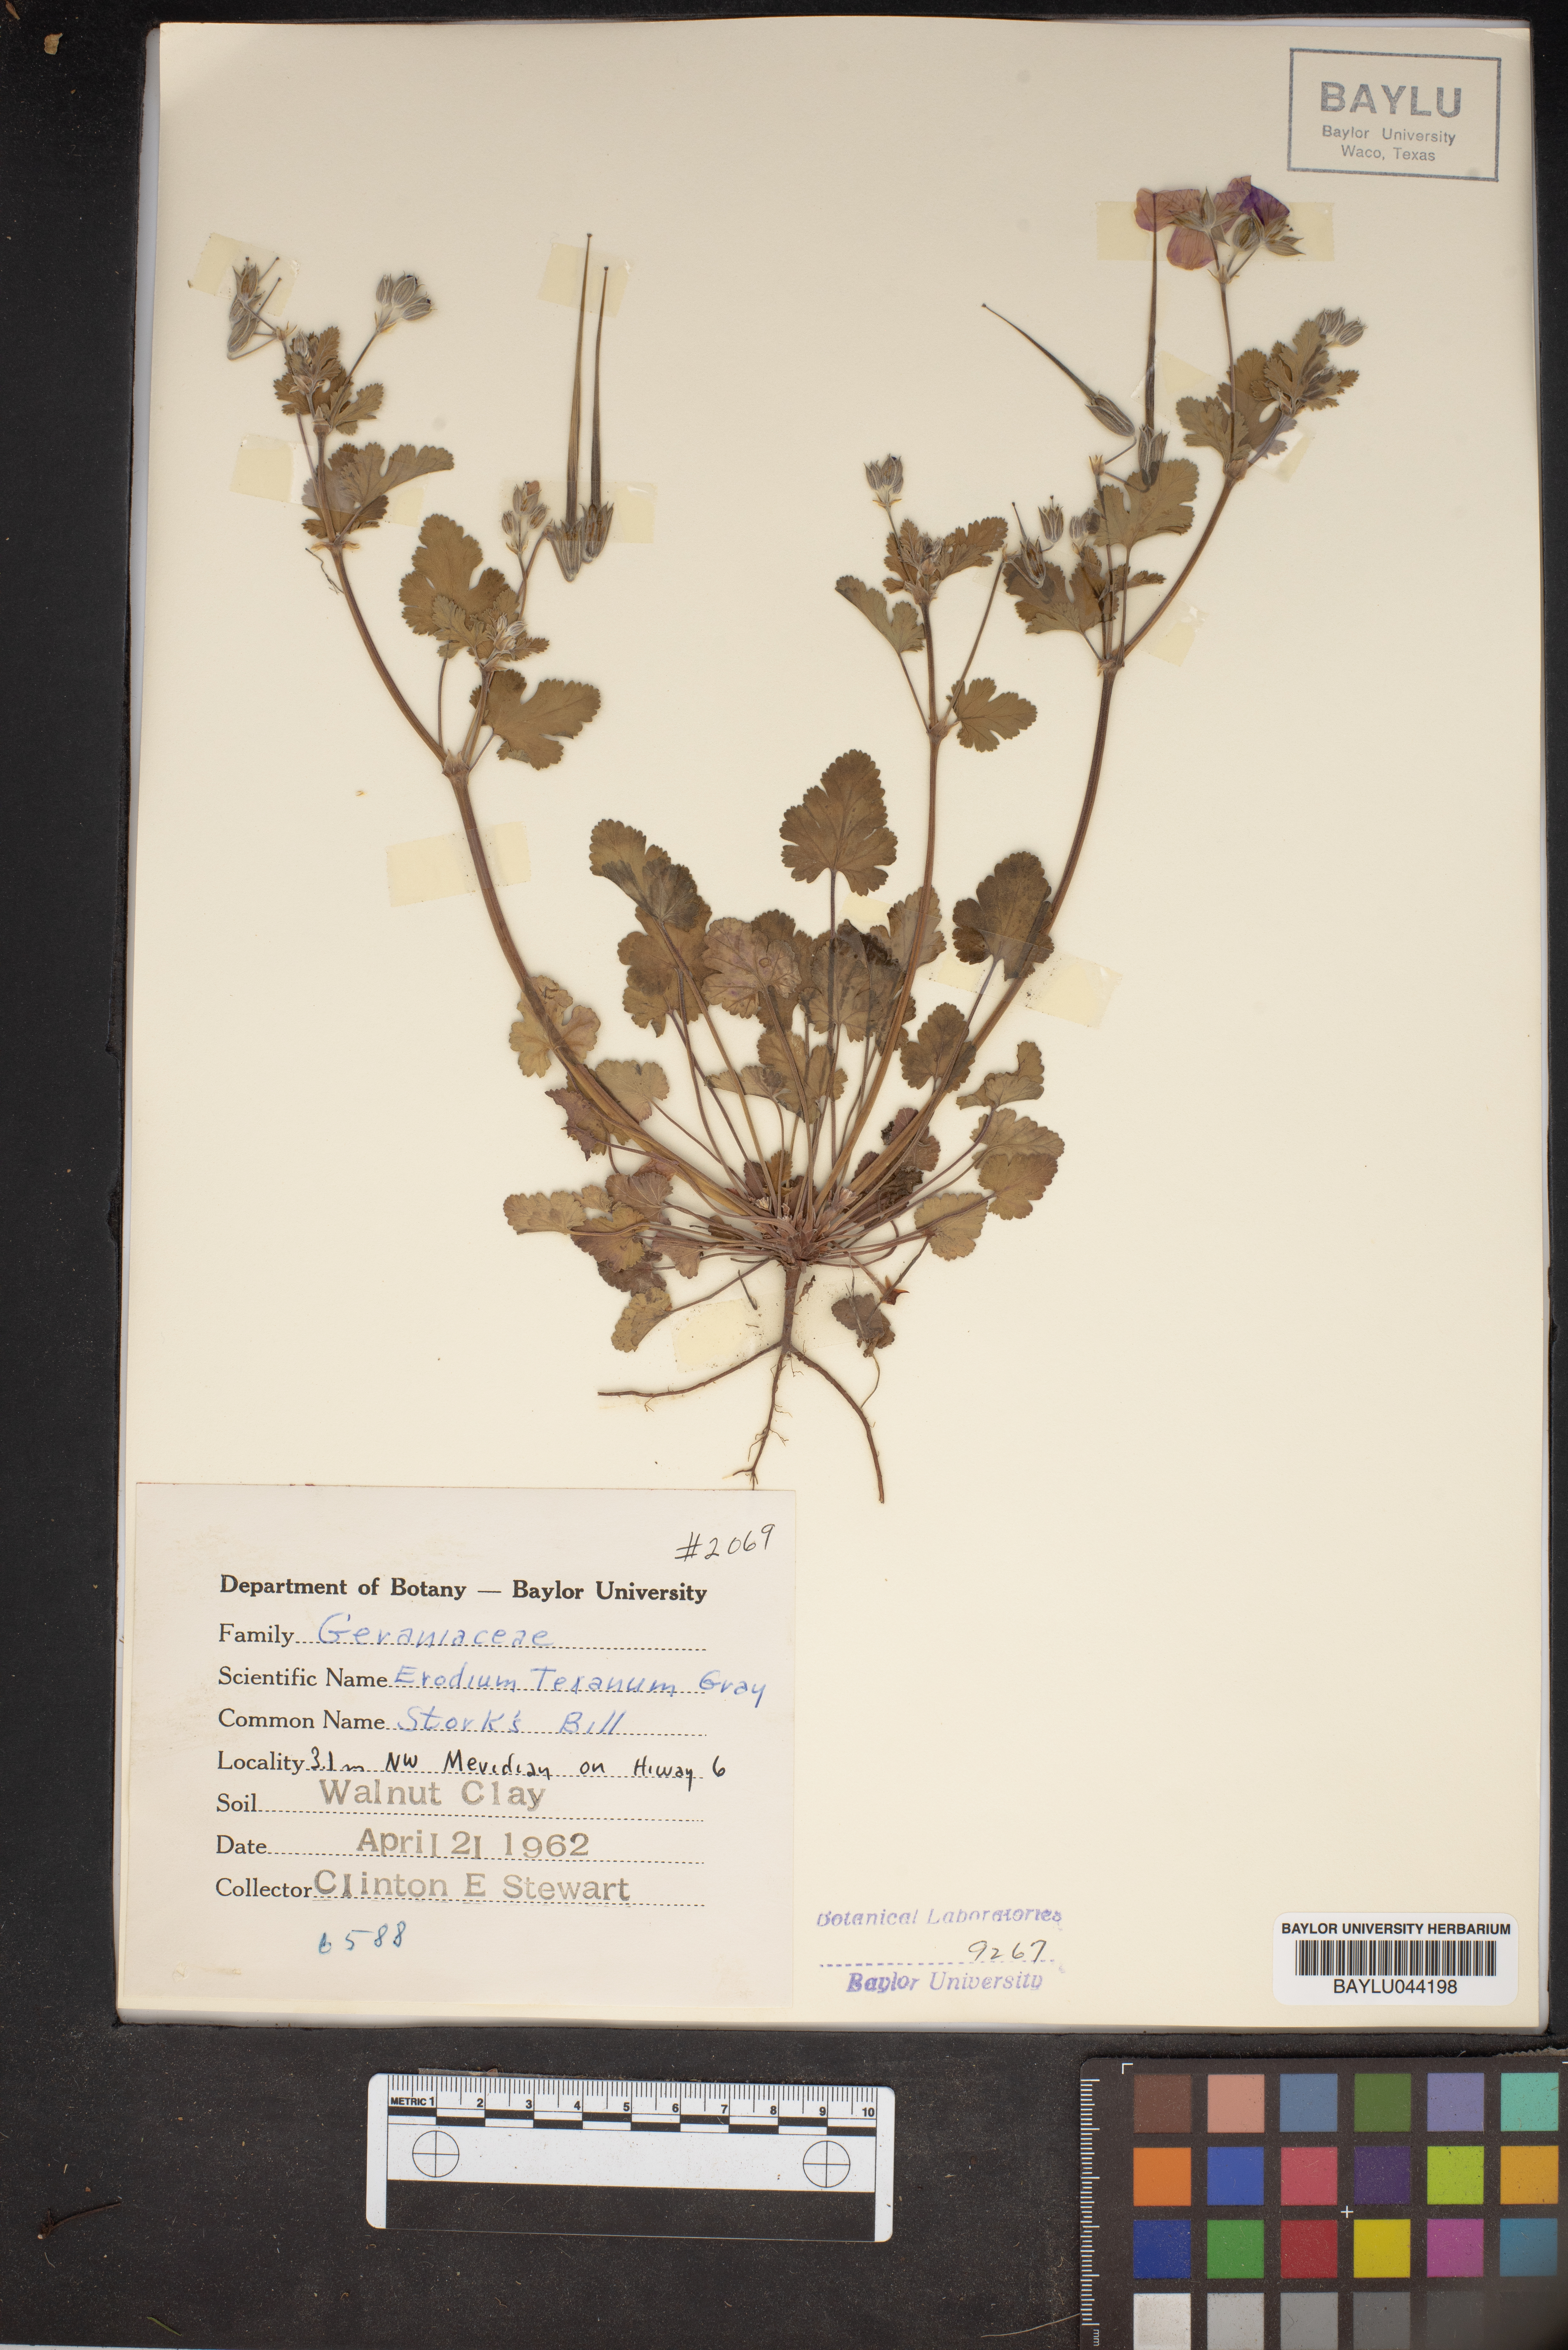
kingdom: Plantae
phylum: Tracheophyta
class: Magnoliopsida
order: Geraniales
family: Geraniaceae
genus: Erodium
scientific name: Erodium texanum
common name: Texas stork's-bill
